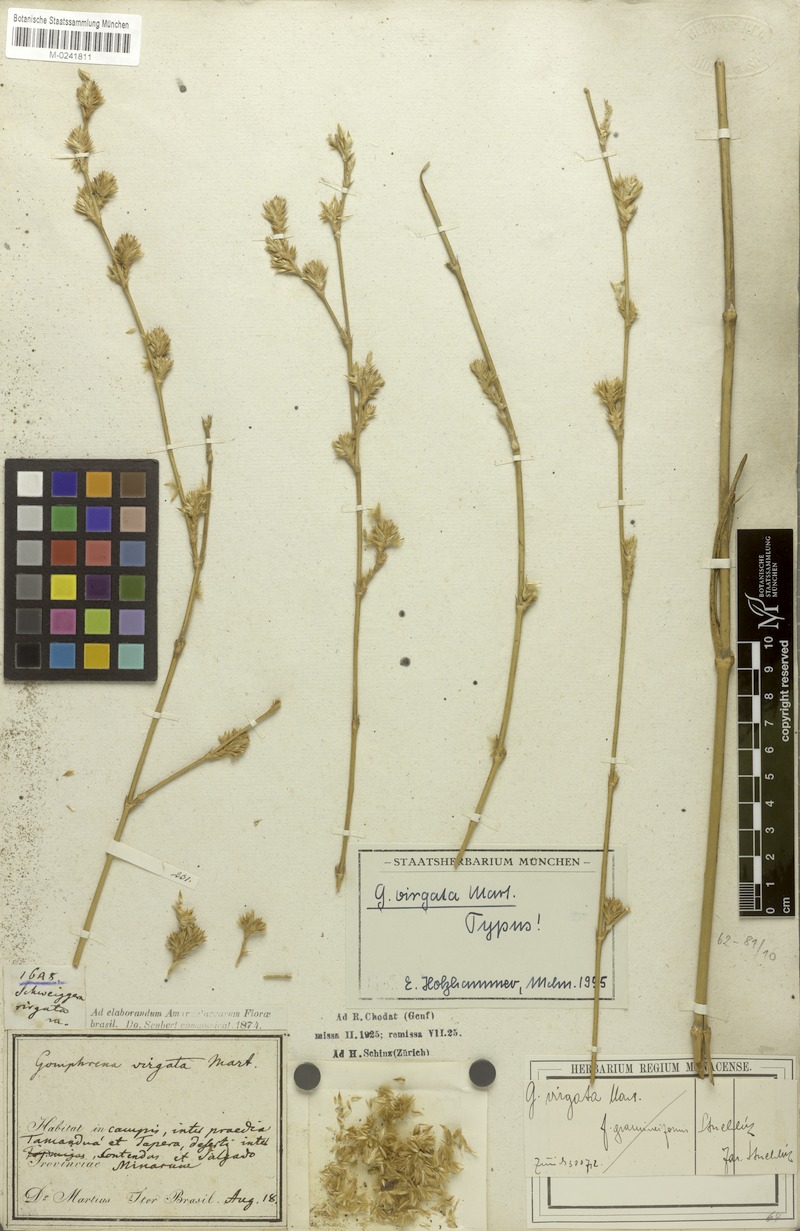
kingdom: Plantae
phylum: Tracheophyta
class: Magnoliopsida
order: Caryophyllales
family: Amaranthaceae
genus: Gomphrena
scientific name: Gomphrena virgata
